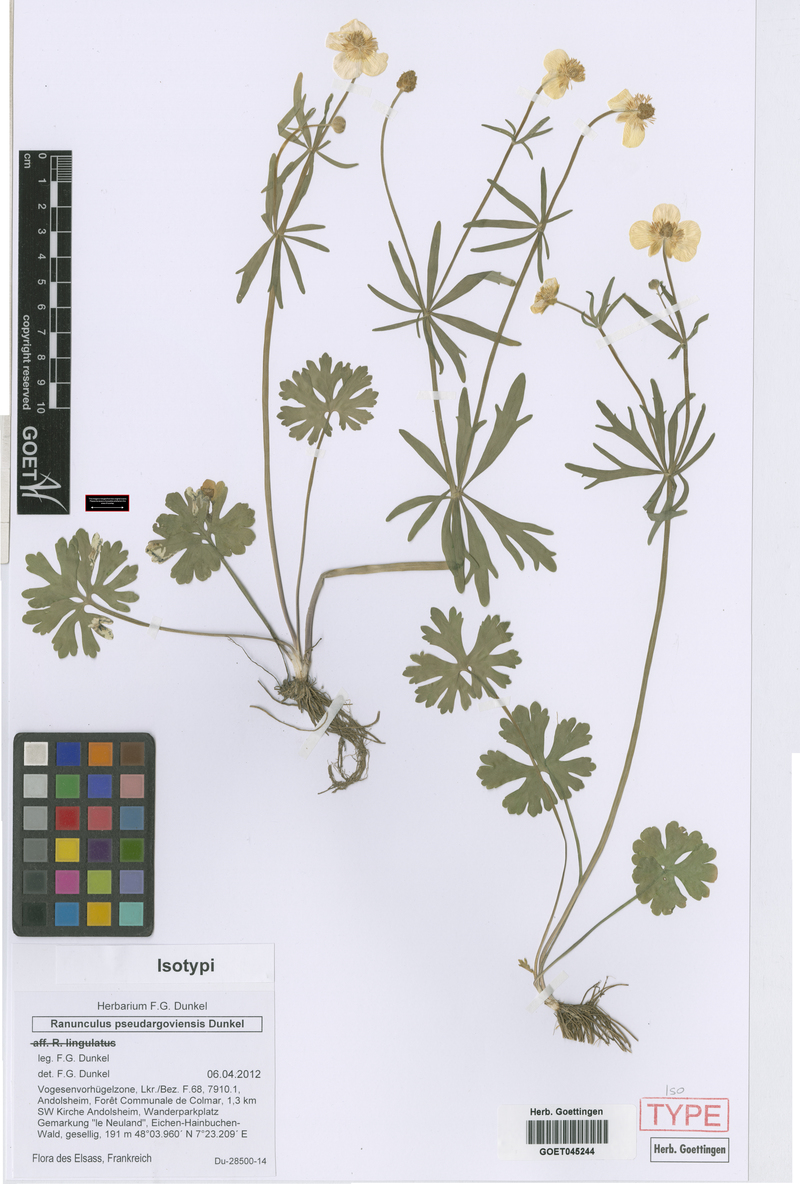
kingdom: Plantae
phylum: Tracheophyta
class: Magnoliopsida
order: Ranunculales
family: Ranunculaceae
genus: Ranunculus
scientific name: Ranunculus pseudargoviensis
